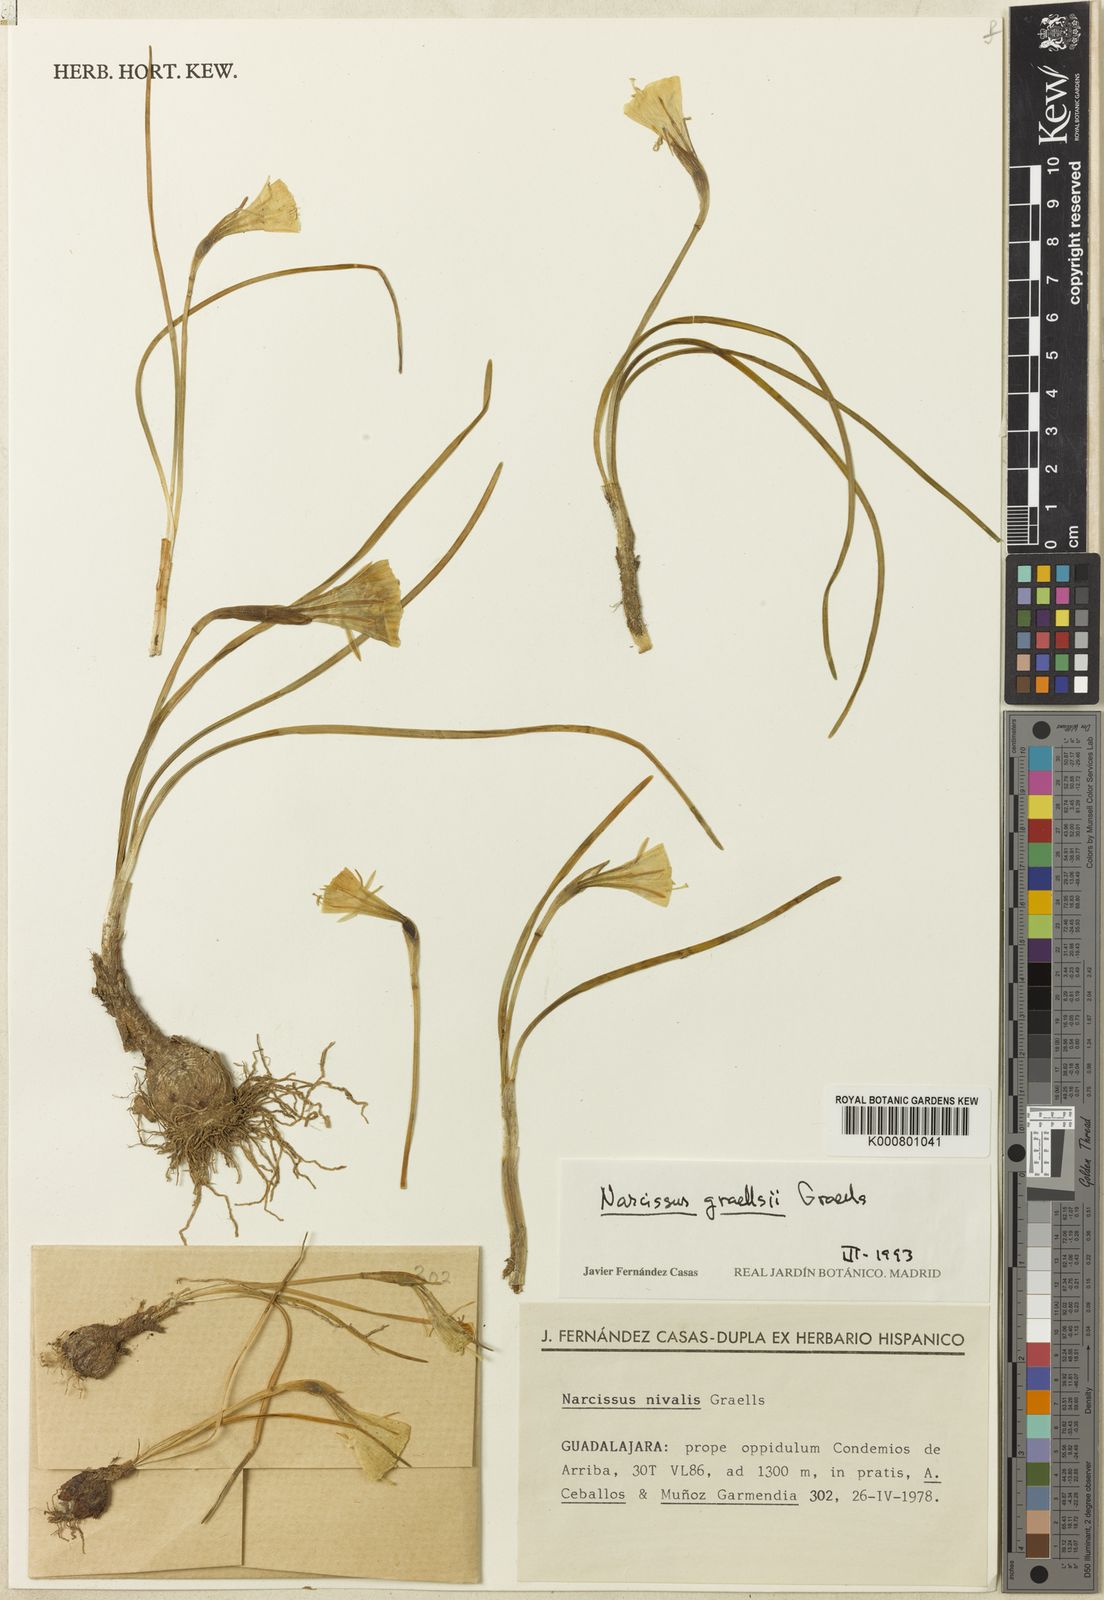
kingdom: Plantae
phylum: Tracheophyta
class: Liliopsida
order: Asparagales
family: Amaryllidaceae
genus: Narcissus
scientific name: Narcissus bulbocodium
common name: Hoop-petticoat daffodil
